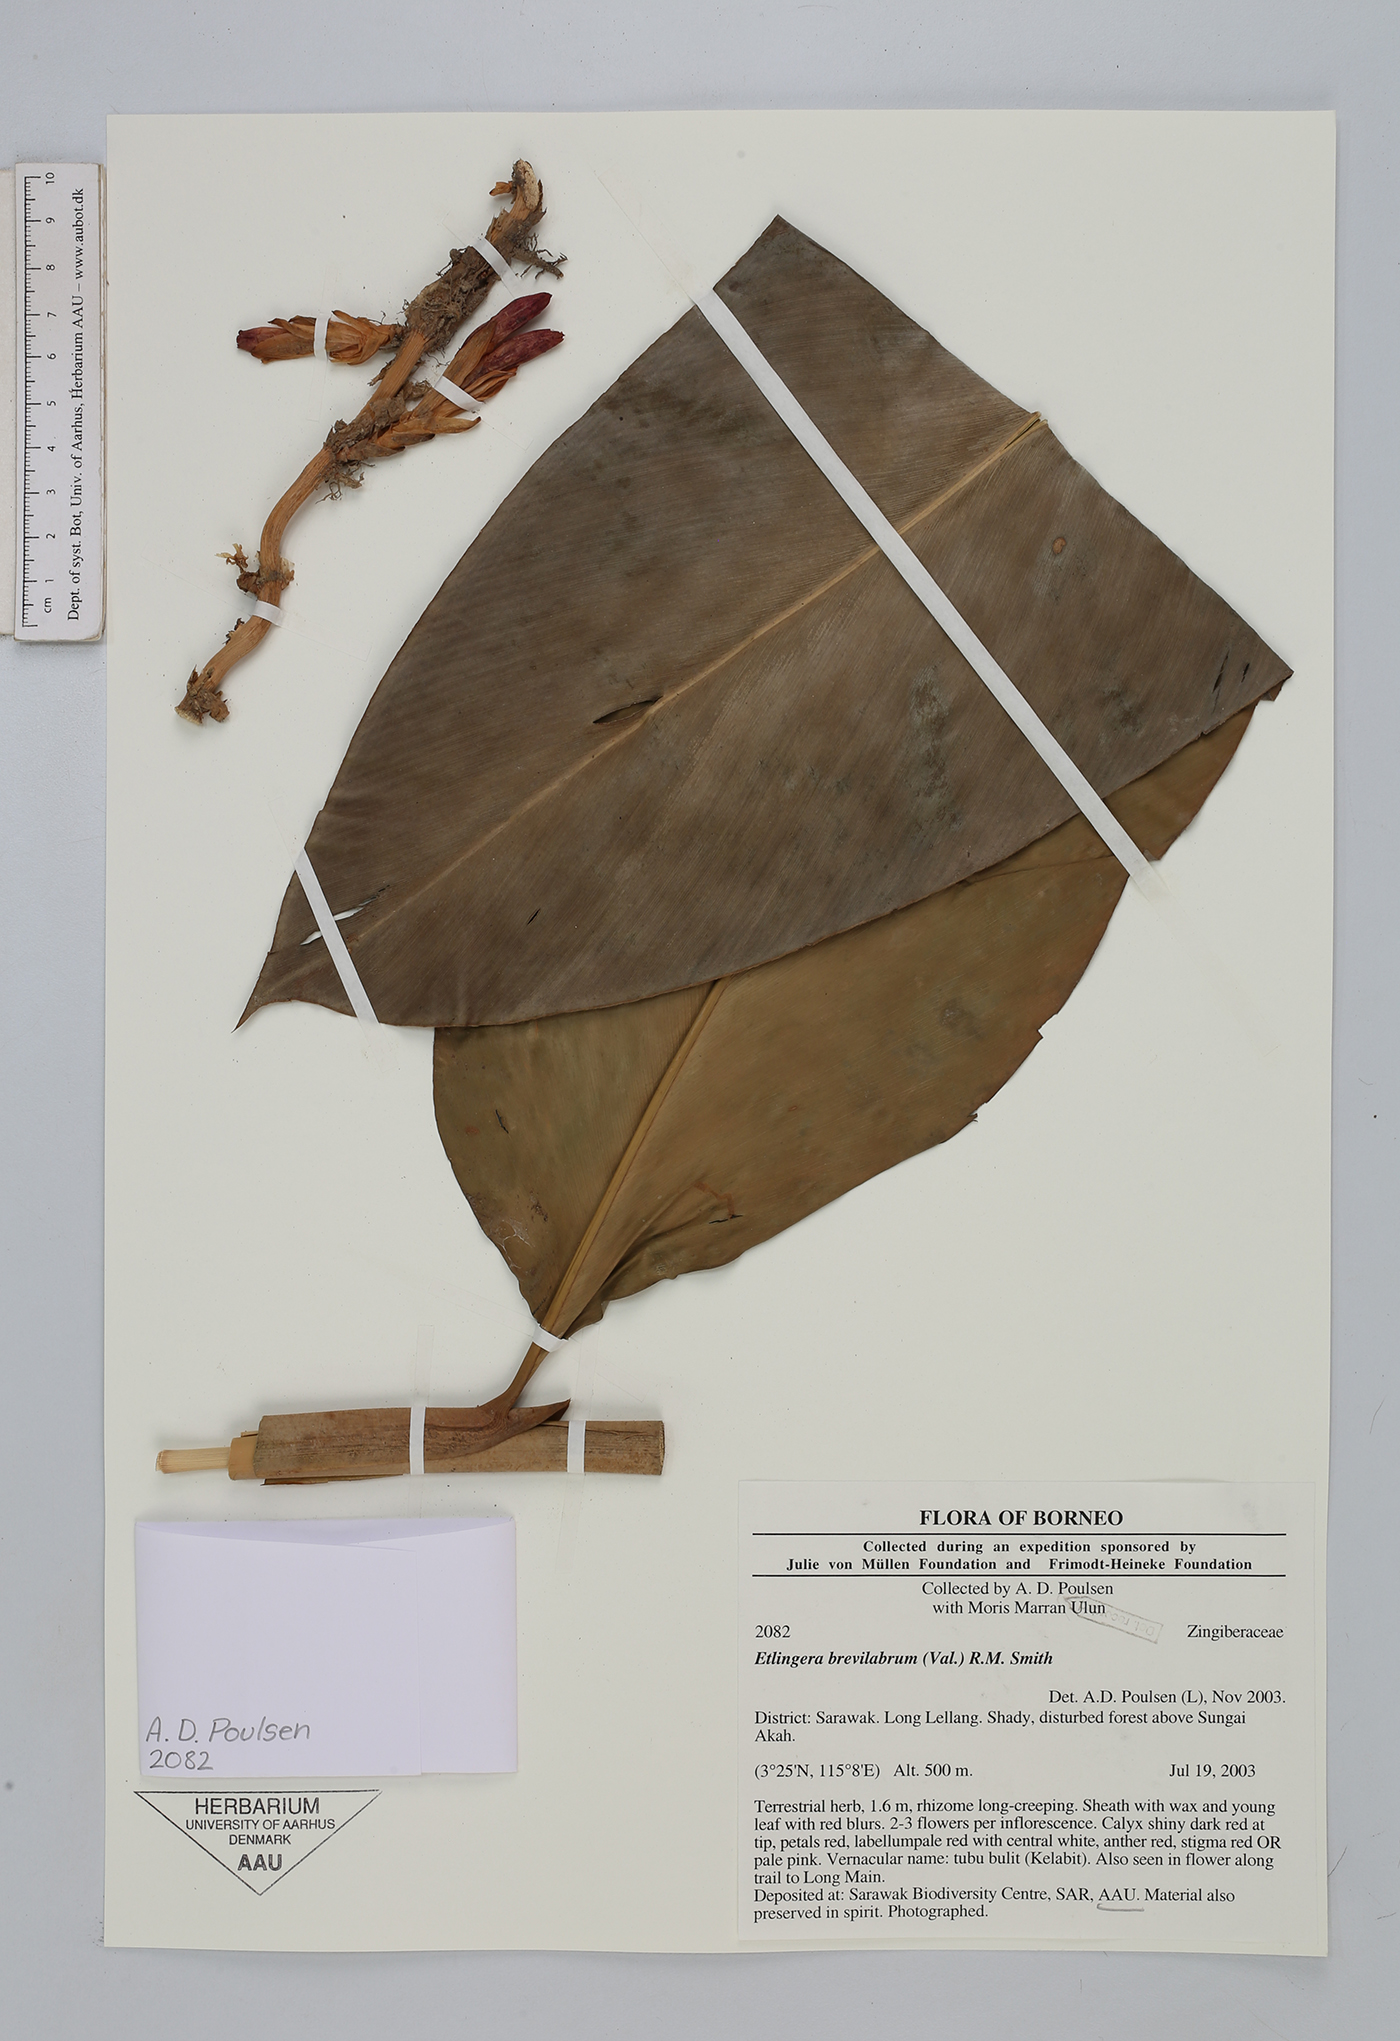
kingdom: Plantae
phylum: Tracheophyta
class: Liliopsida
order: Zingiberales
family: Zingiberaceae
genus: Etlingera
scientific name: Etlingera brevilabrum
